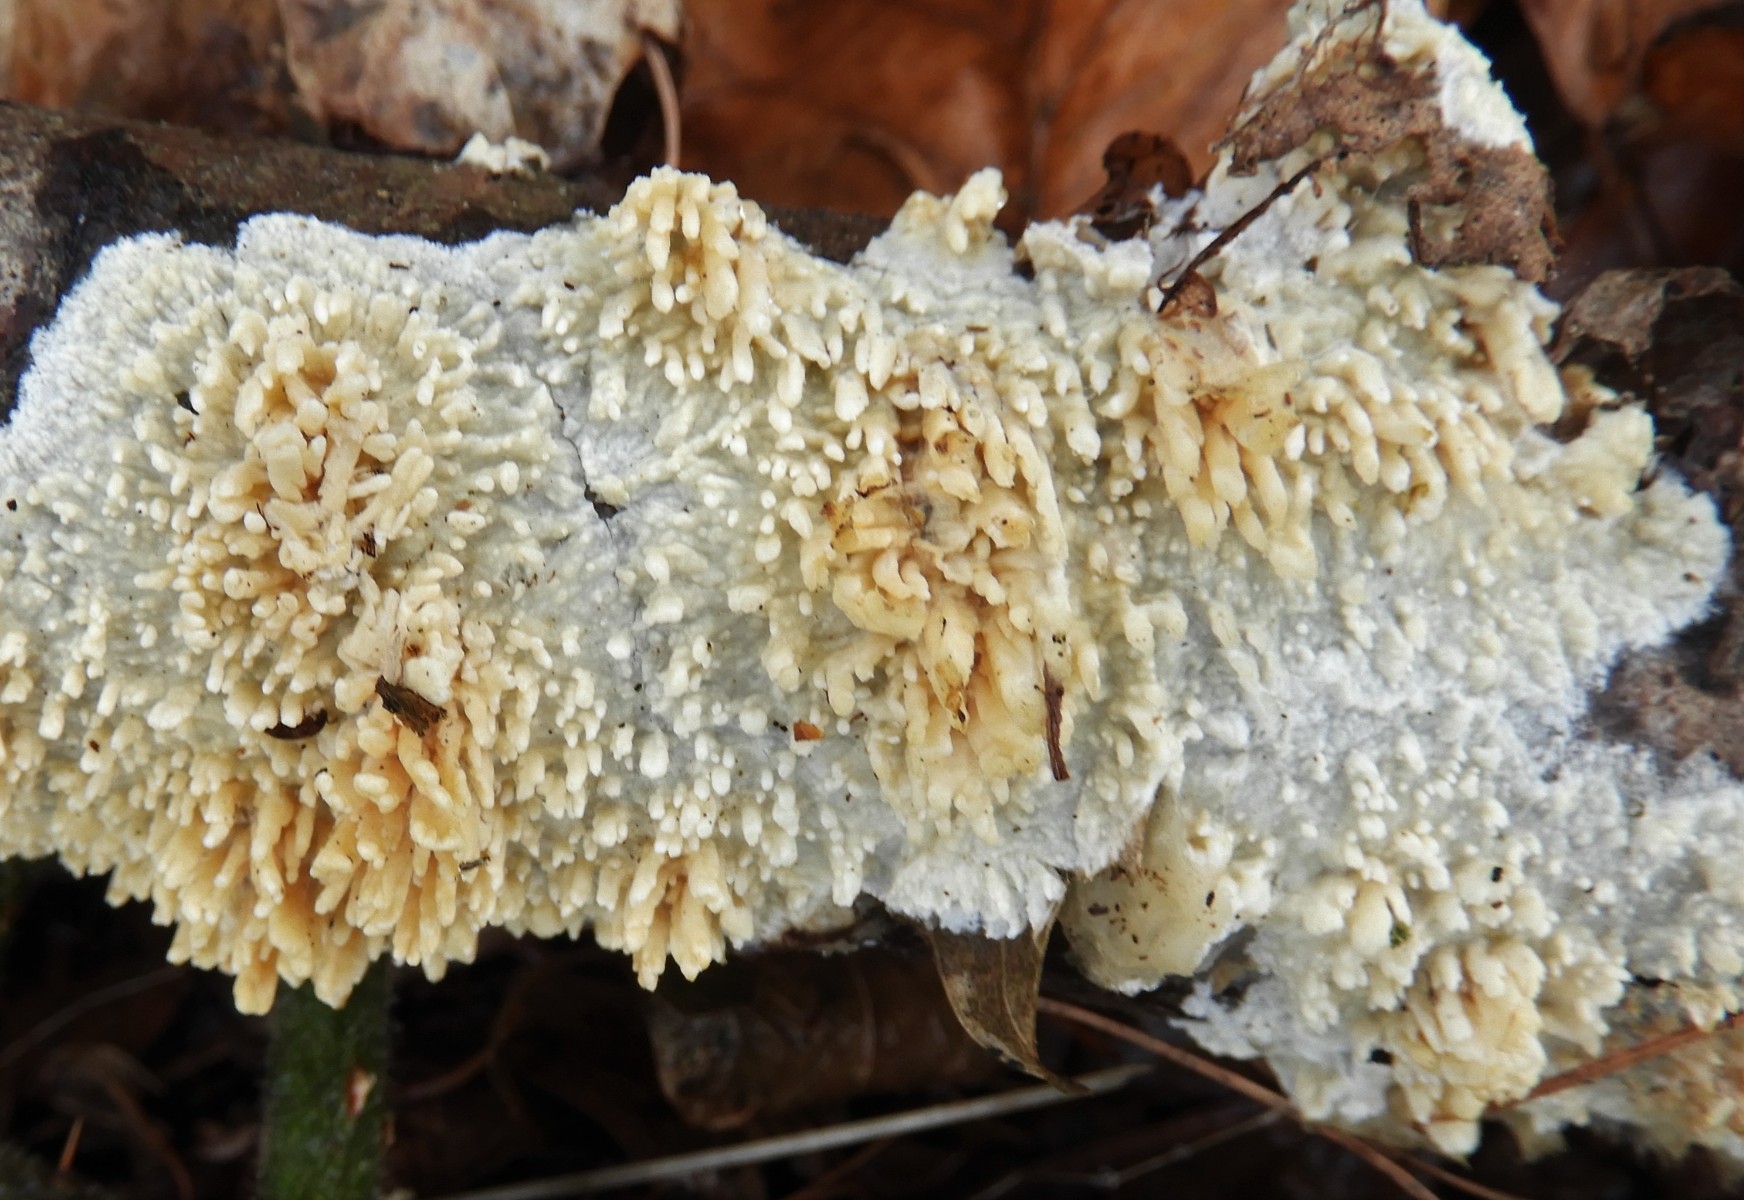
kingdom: Fungi
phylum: Basidiomycota
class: Agaricomycetes
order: Hymenochaetales
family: Schizoporaceae
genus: Xylodon
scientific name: Xylodon radula
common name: grovtandet kalkskind
